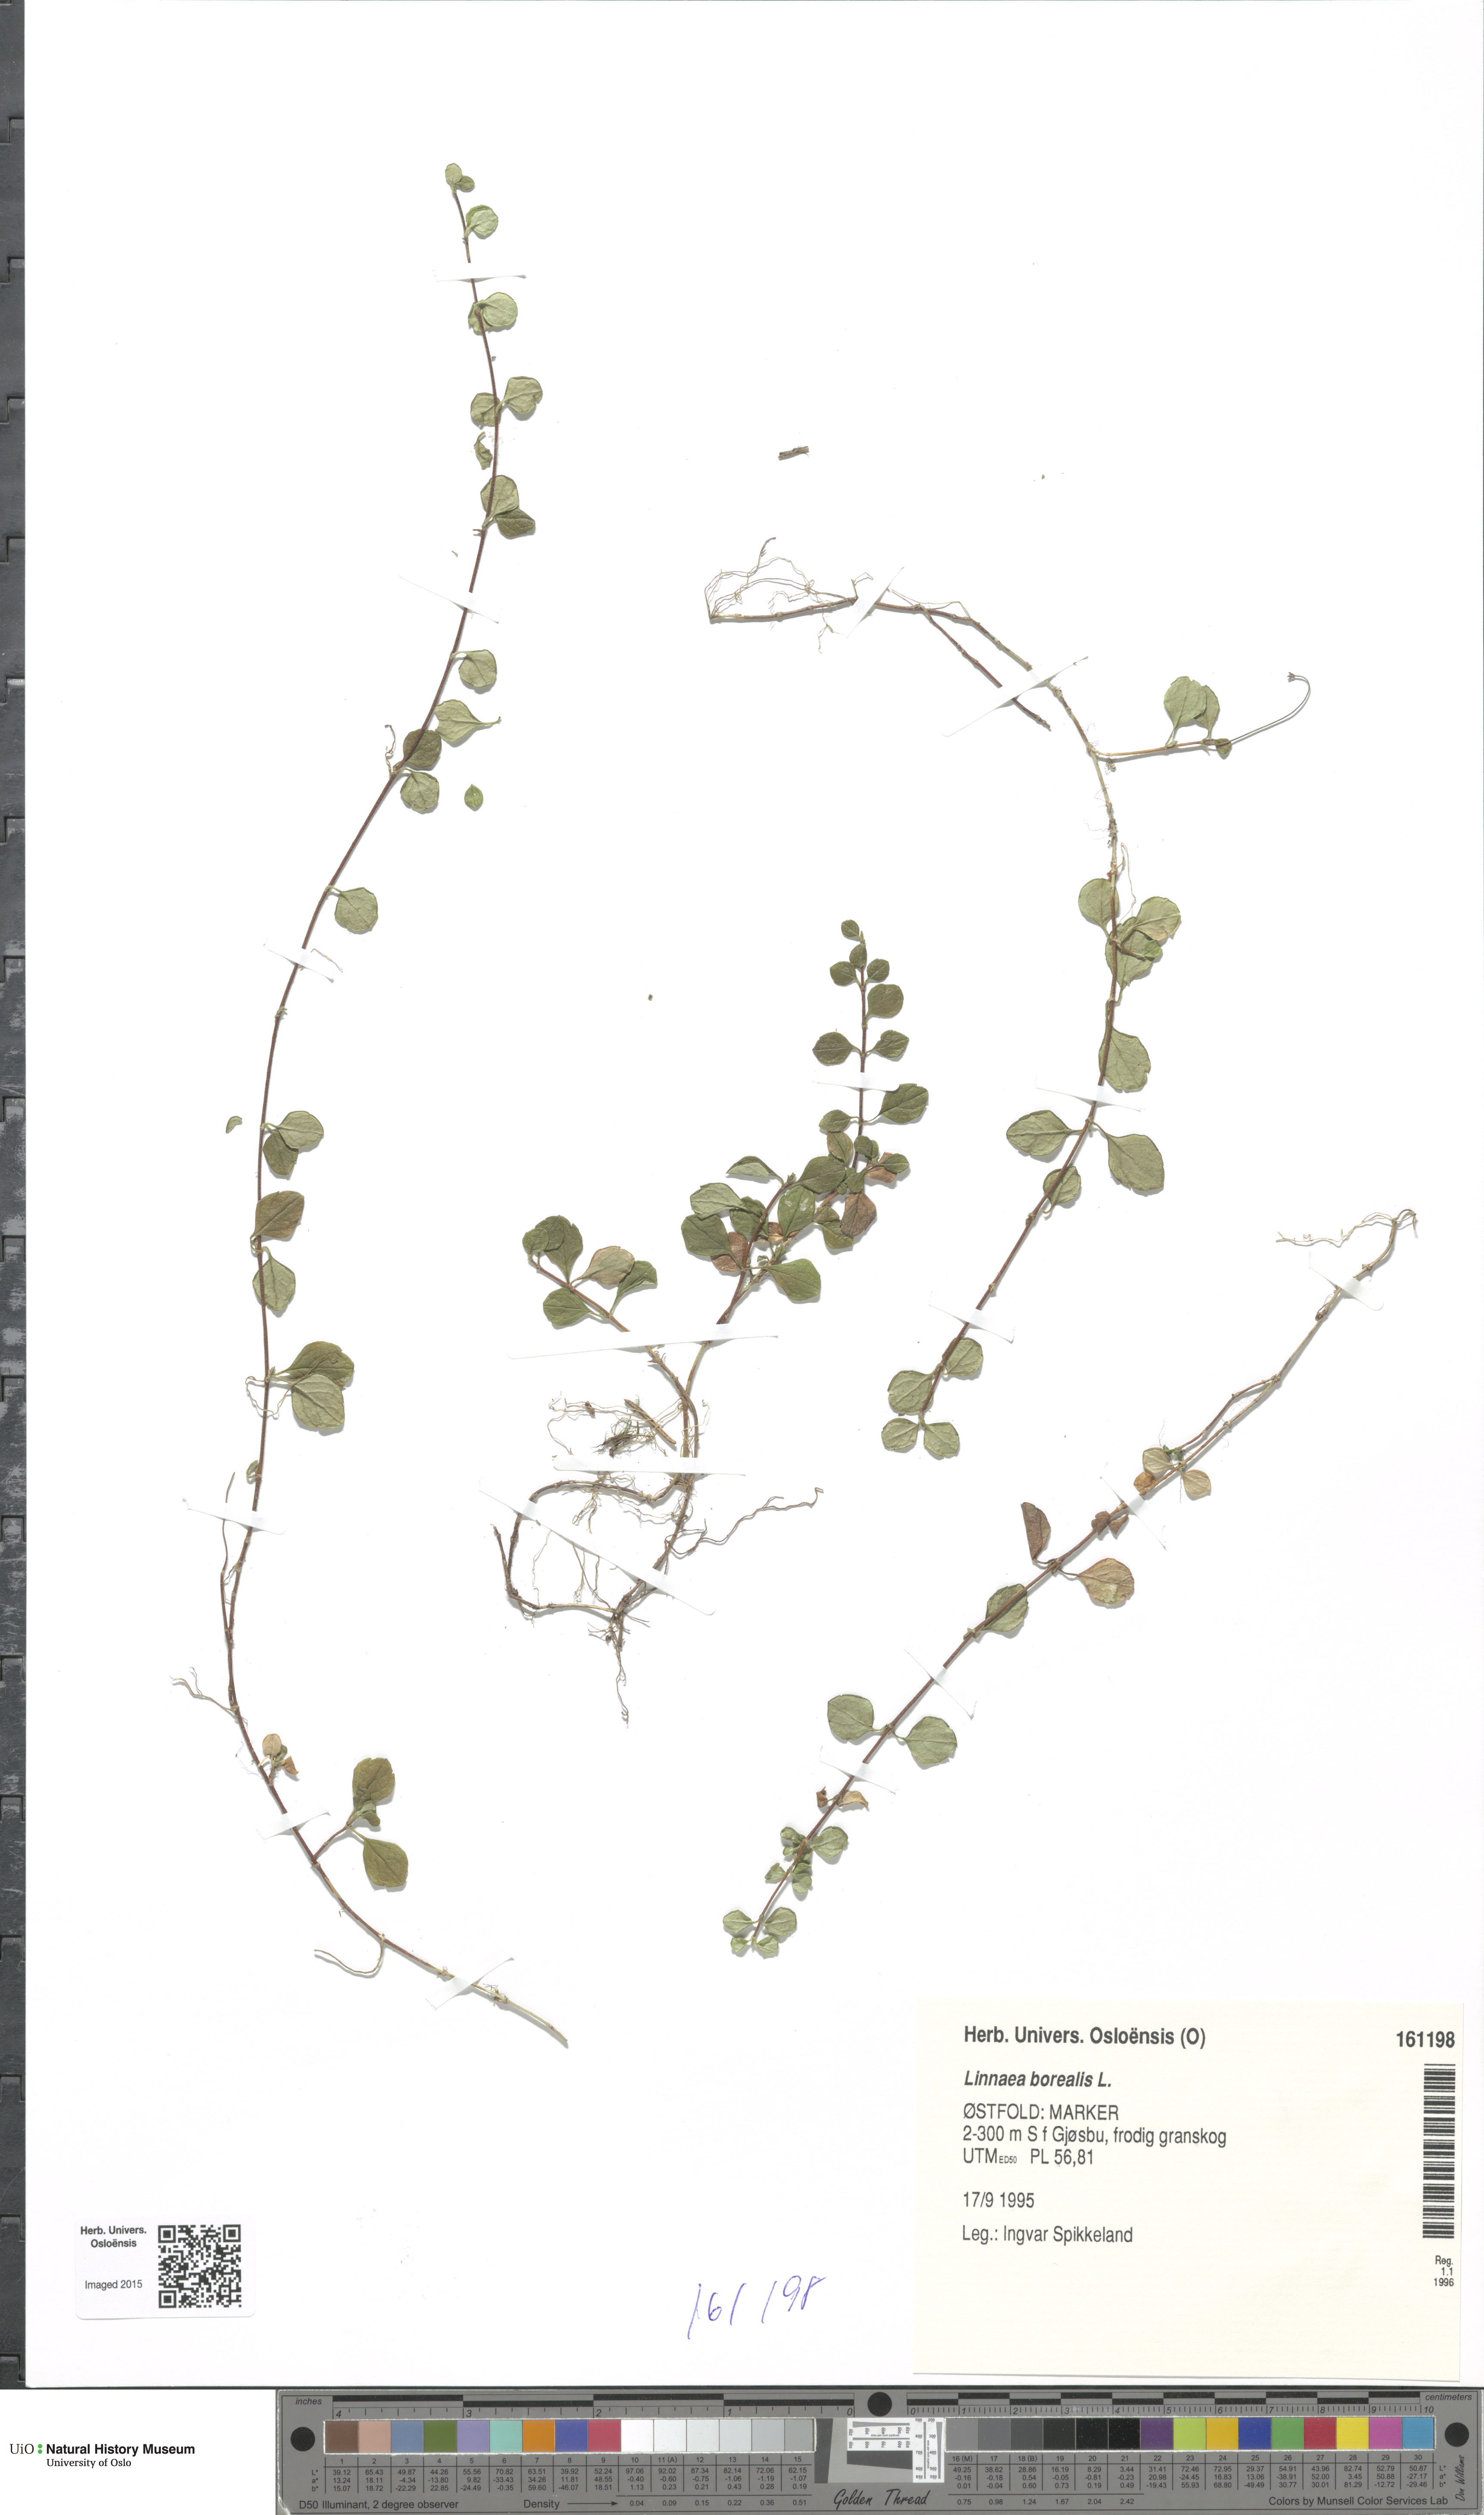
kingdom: Plantae
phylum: Tracheophyta
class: Magnoliopsida
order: Dipsacales
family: Caprifoliaceae
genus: Linnaea
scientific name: Linnaea borealis
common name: Twinflower
